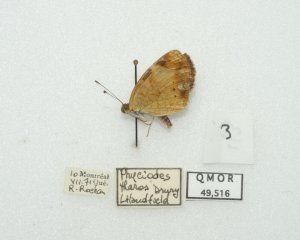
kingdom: Animalia
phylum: Arthropoda
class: Insecta
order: Lepidoptera
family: Nymphalidae
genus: Phyciodes
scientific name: Phyciodes tharos
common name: Northern Crescent
